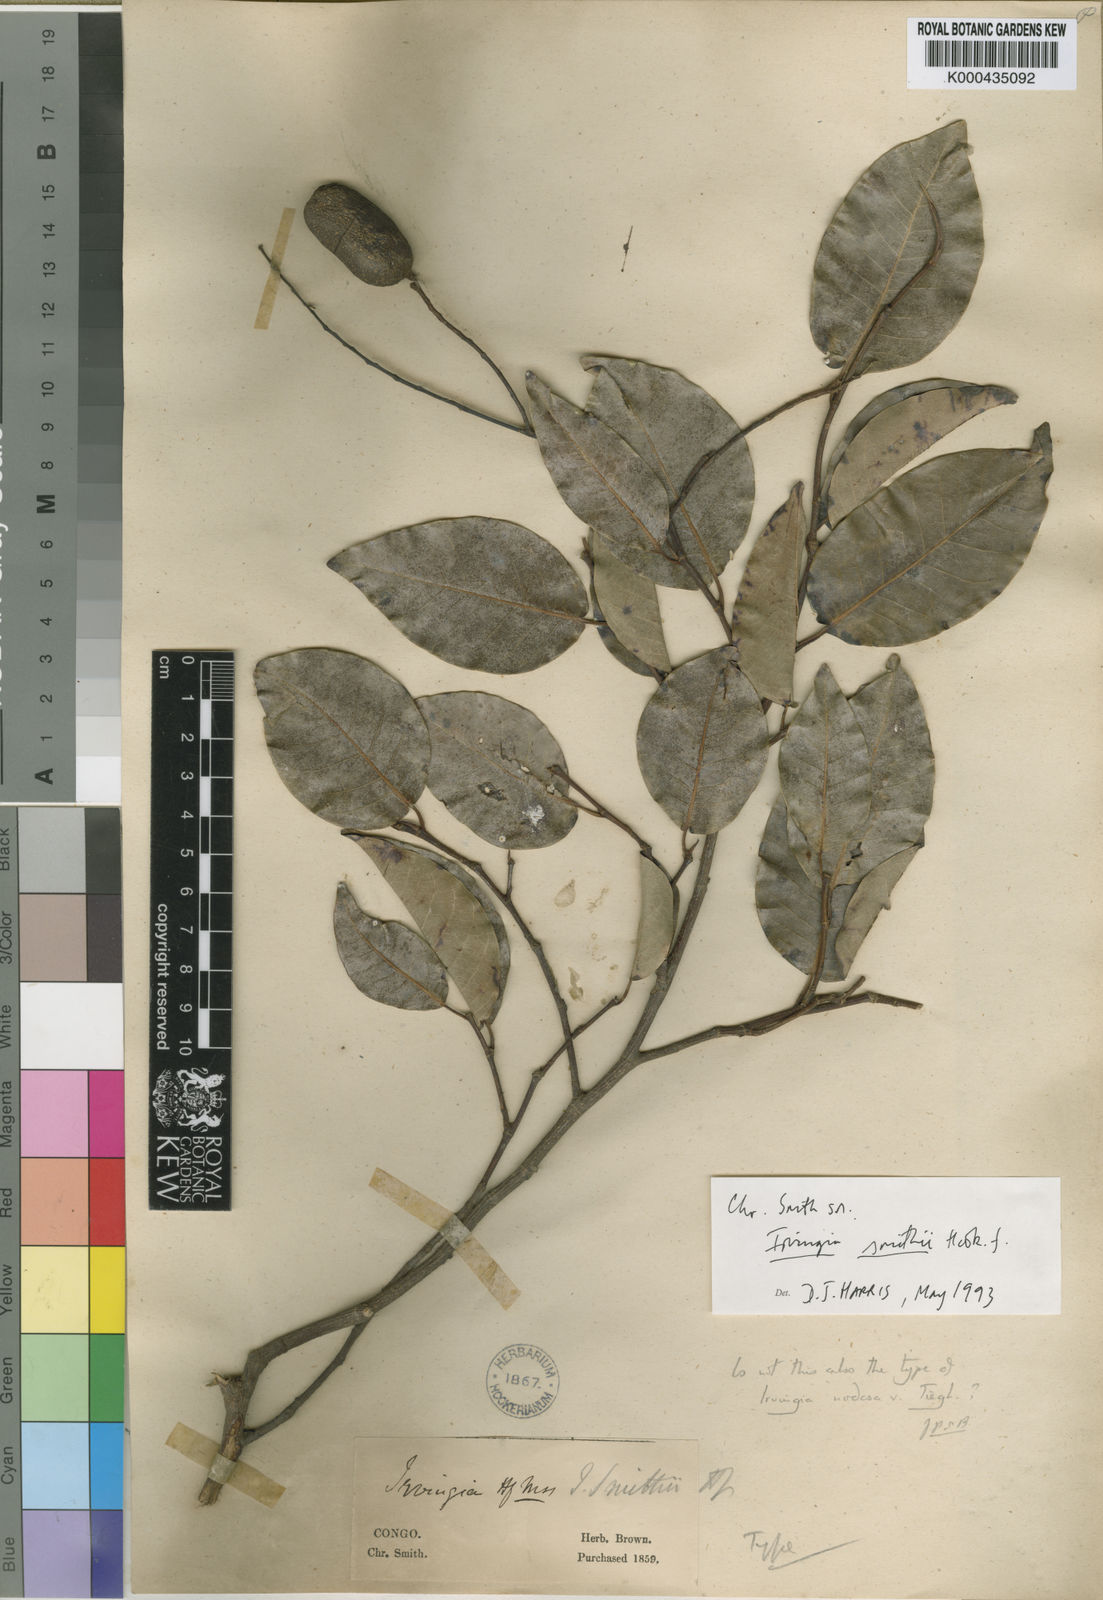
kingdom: Plantae
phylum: Tracheophyta
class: Magnoliopsida
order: Malpighiales
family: Irvingiaceae
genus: Irvingia
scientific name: Irvingia smithii
